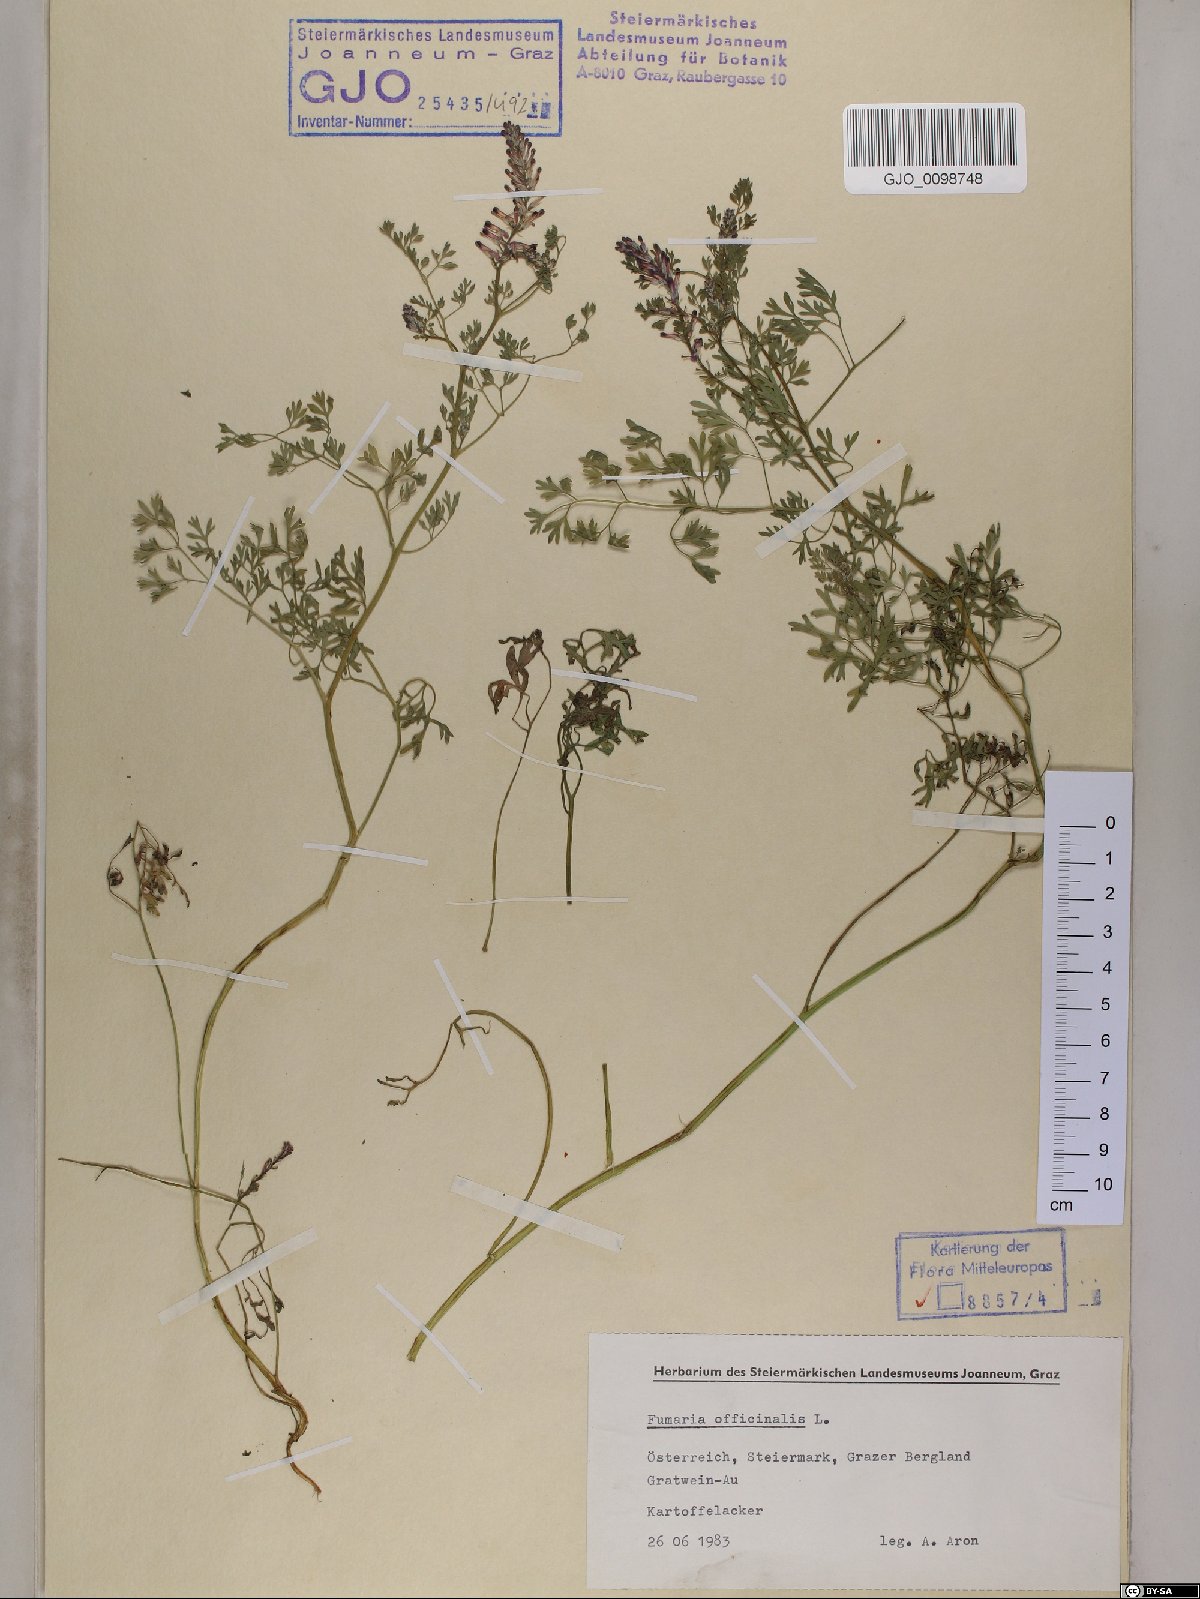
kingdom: Plantae
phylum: Tracheophyta
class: Magnoliopsida
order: Ranunculales
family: Papaveraceae
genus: Fumaria
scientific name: Fumaria officinalis
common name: Common fumitory
